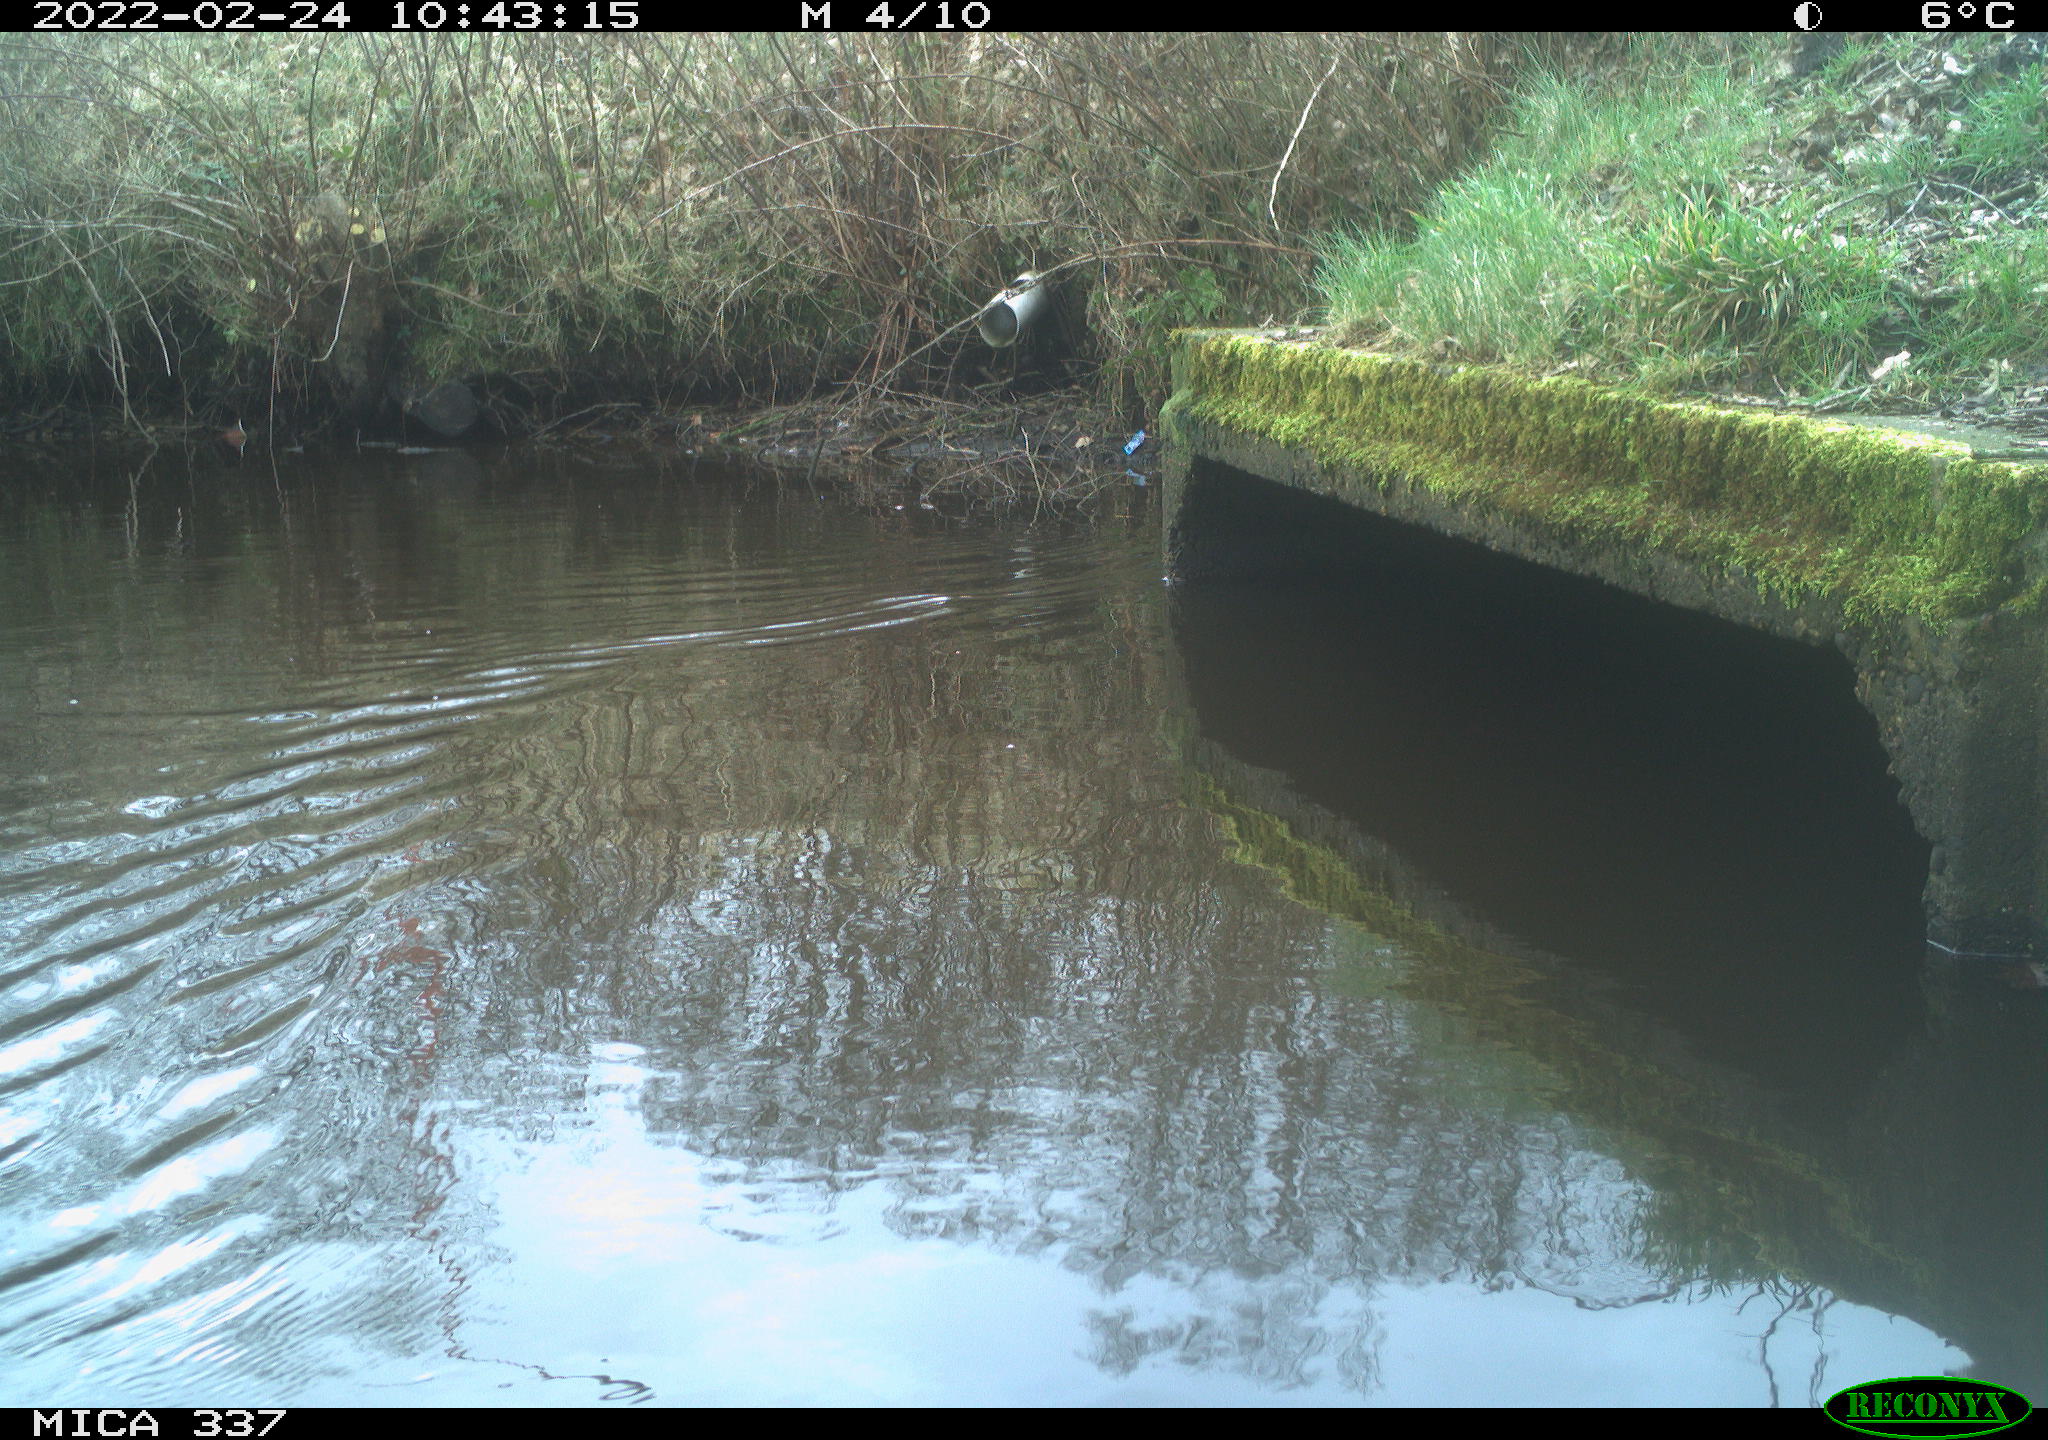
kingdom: Animalia
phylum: Chordata
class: Aves
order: Anseriformes
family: Anatidae
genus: Anas
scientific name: Anas platyrhynchos
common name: Mallard
